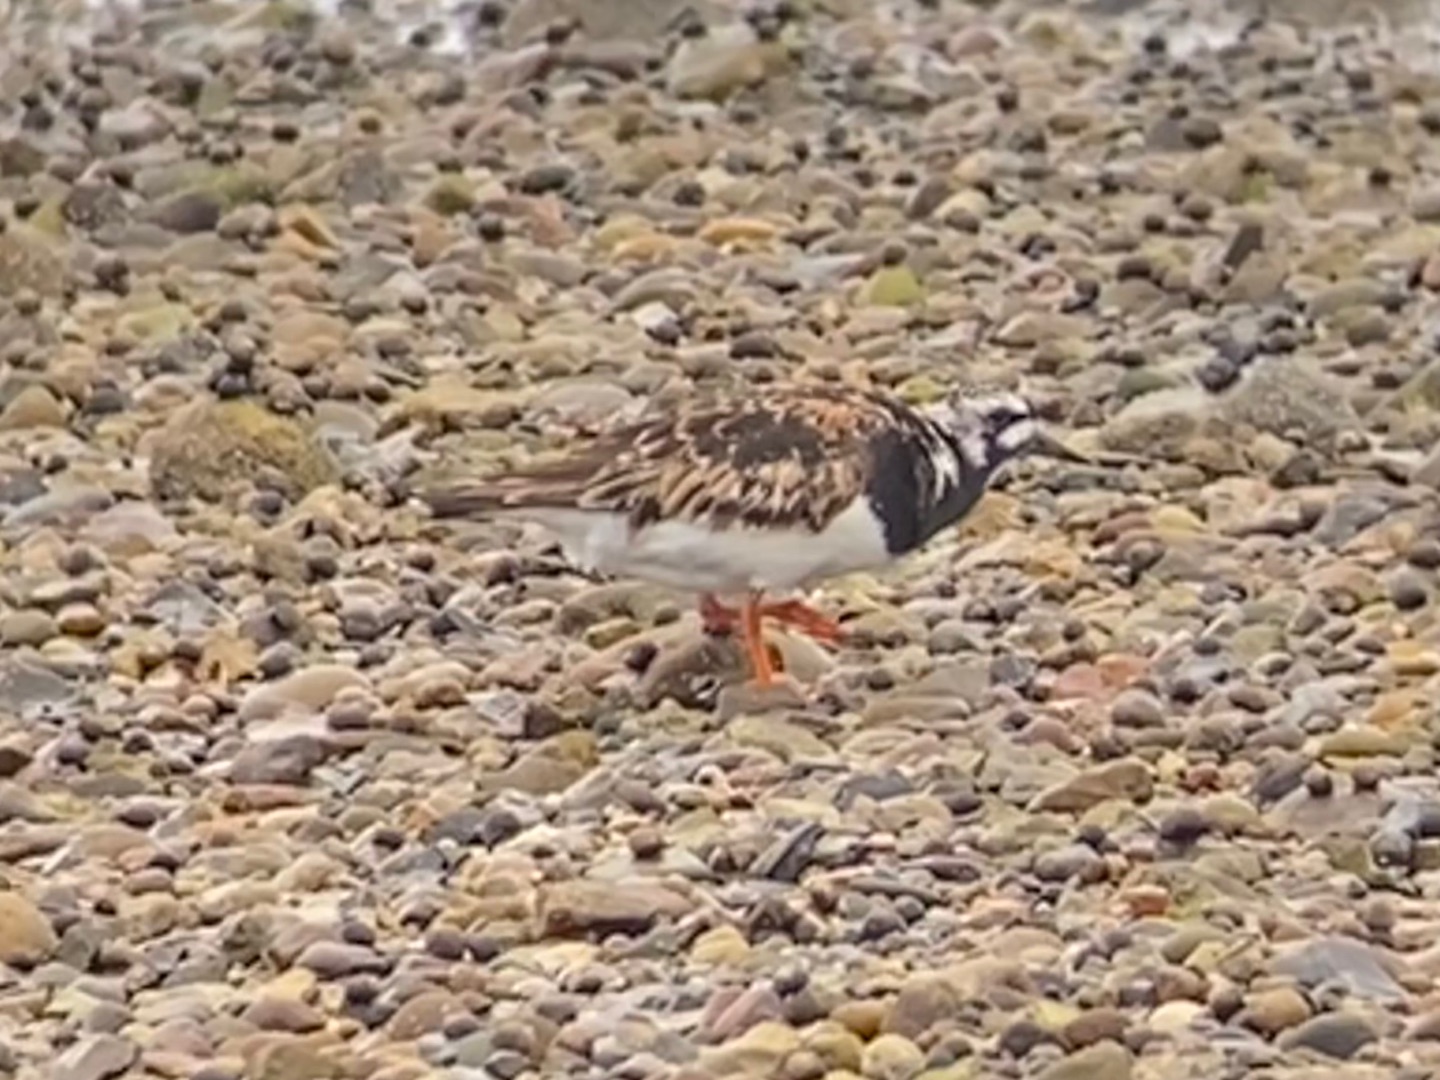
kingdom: Animalia
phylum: Chordata
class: Aves
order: Charadriiformes
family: Scolopacidae
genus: Arenaria
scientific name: Arenaria interpres
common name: Stenvender
